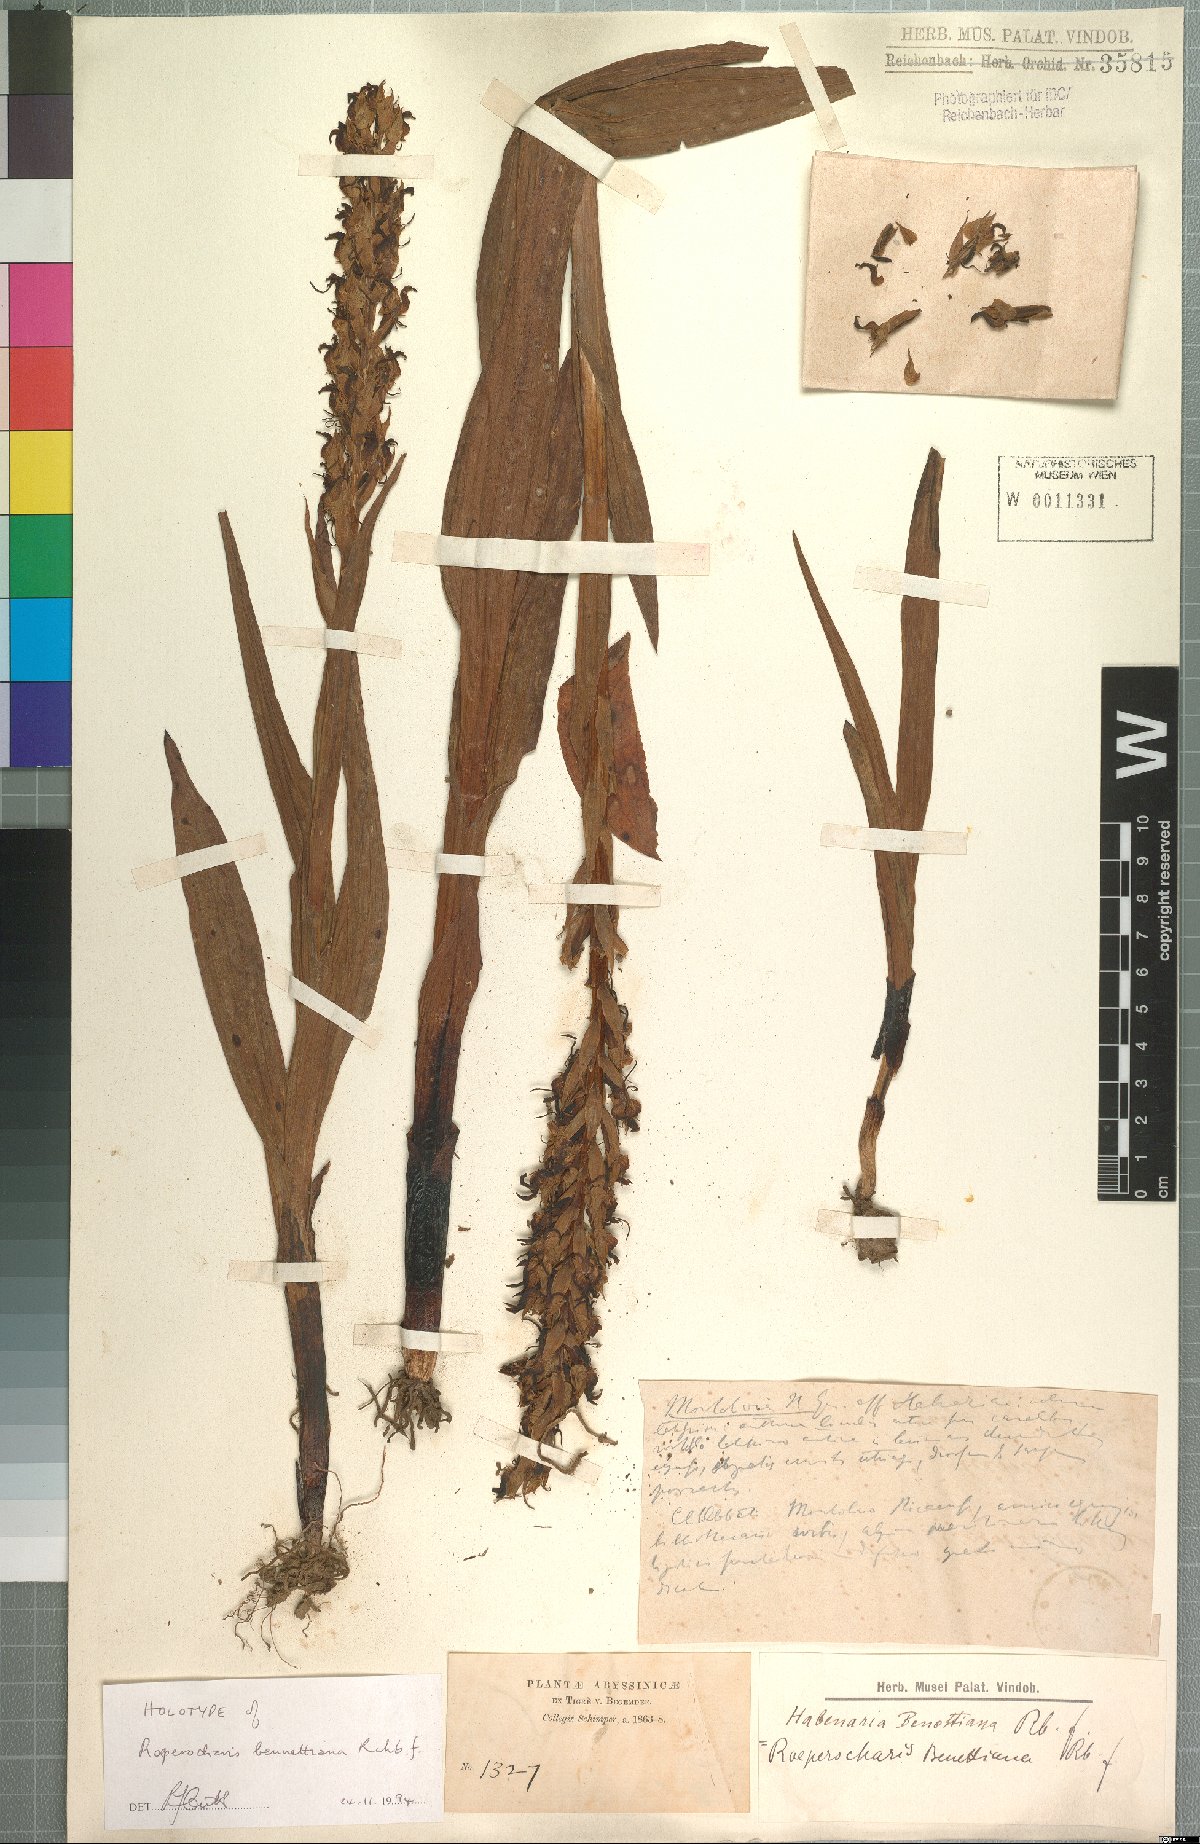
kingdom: Plantae
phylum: Tracheophyta
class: Liliopsida
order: Asparagales
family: Orchidaceae
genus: Roeperocharis
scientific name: Roeperocharis bennettiana
